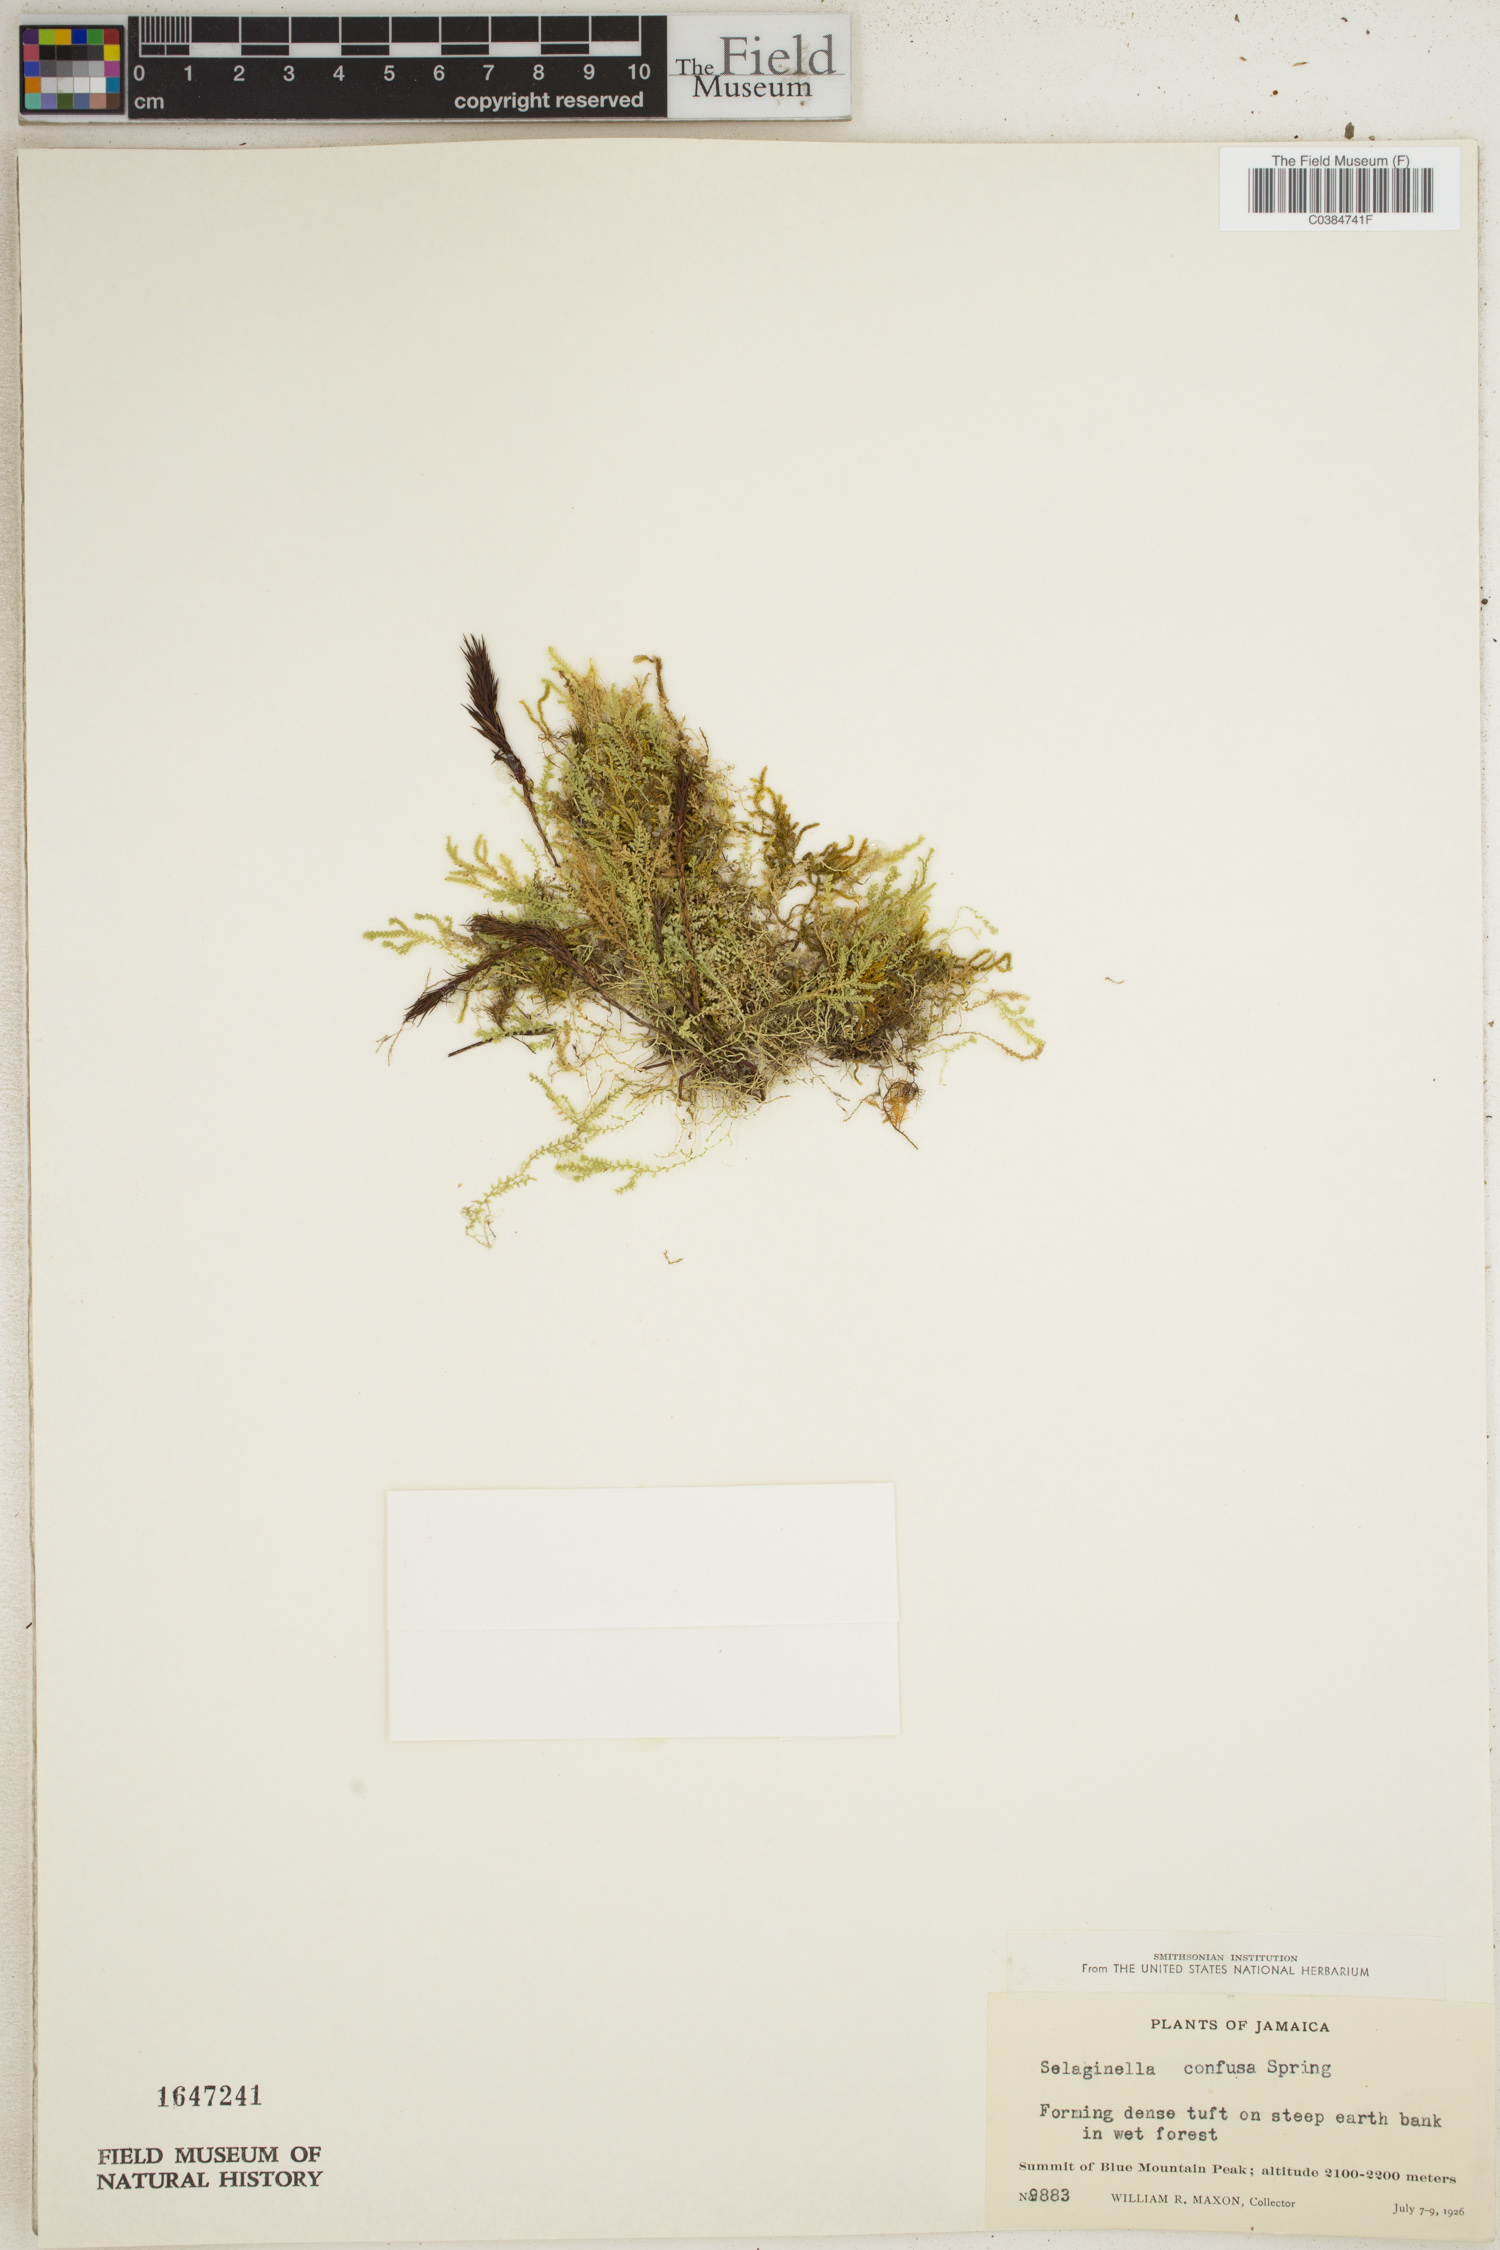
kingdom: Plantae
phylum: Tracheophyta
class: Lycopodiopsida
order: Selaginellales
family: Selaginellaceae
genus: Selaginella
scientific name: Selaginella confusa
